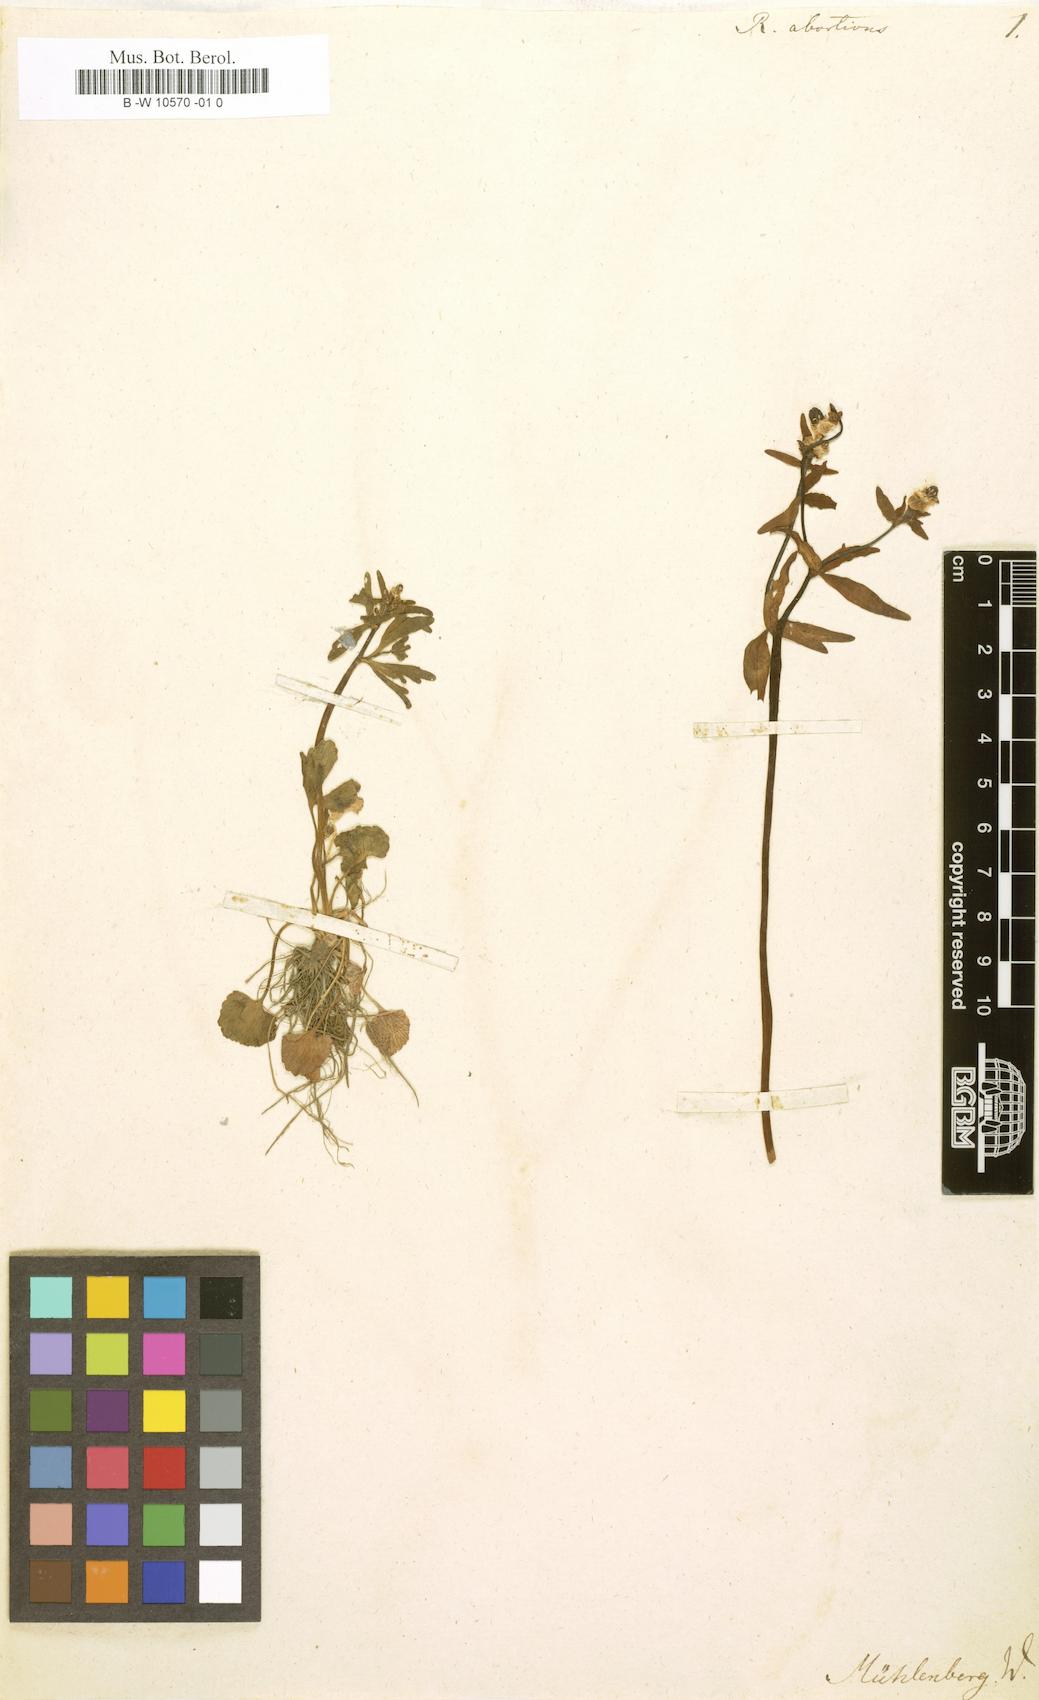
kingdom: Plantae
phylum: Tracheophyta
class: Magnoliopsida
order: Ranunculales
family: Ranunculaceae
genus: Ranunculus
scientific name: Ranunculus abortivus
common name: Early wood buttercup
